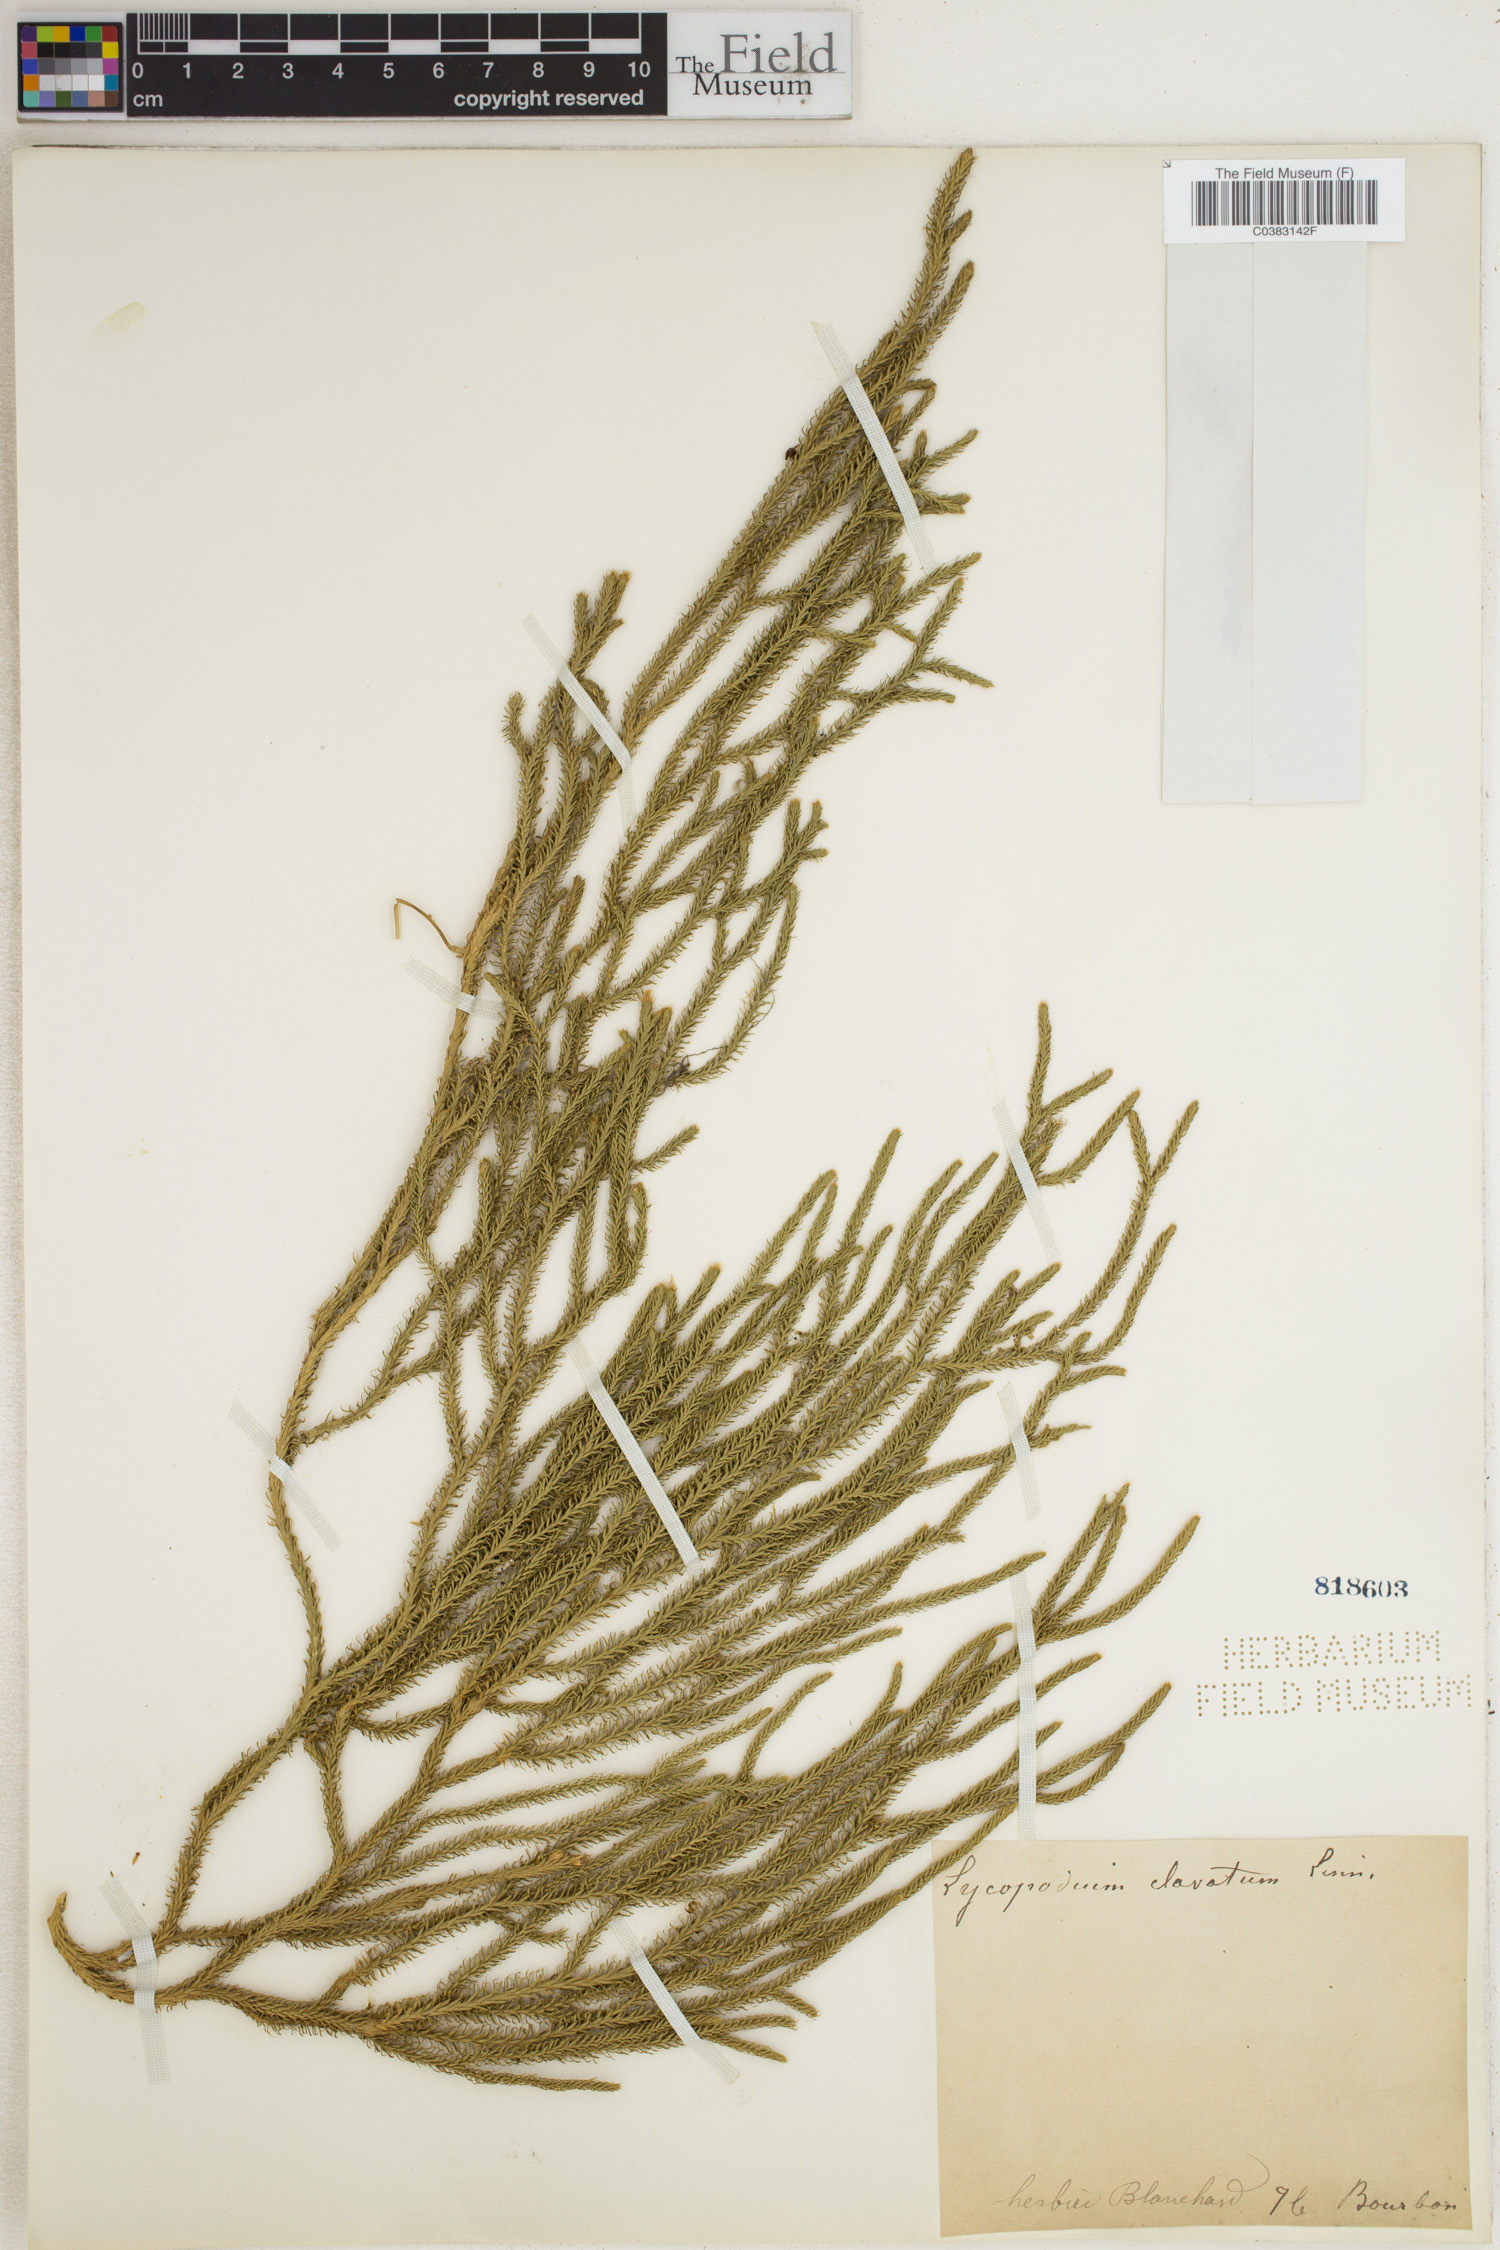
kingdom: Plantae
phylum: Tracheophyta
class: Lycopodiopsida
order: Lycopodiales
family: Lycopodiaceae
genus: Lycopodium
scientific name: Lycopodium clavatum
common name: Stag's-horn clubmoss
